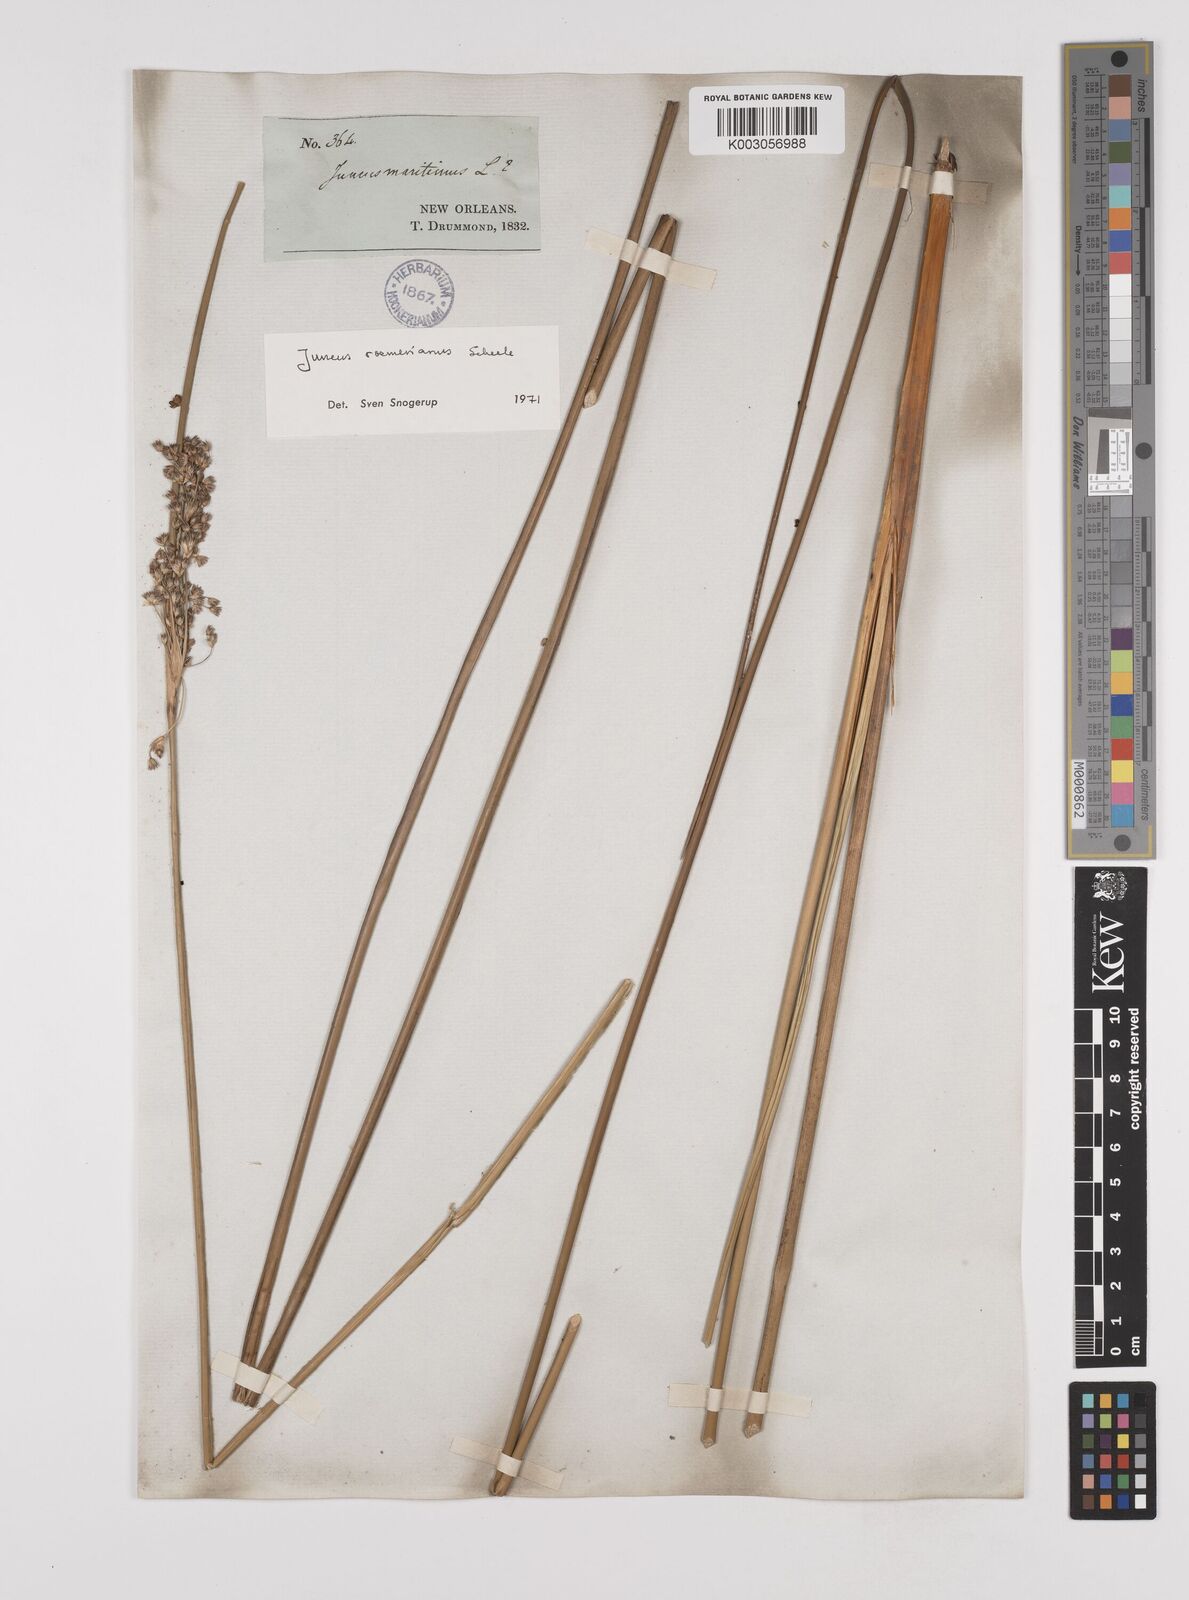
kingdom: Plantae
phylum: Tracheophyta
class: Liliopsida
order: Poales
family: Juncaceae
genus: Juncus
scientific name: Juncus roemerianus
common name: Roemer's rush
